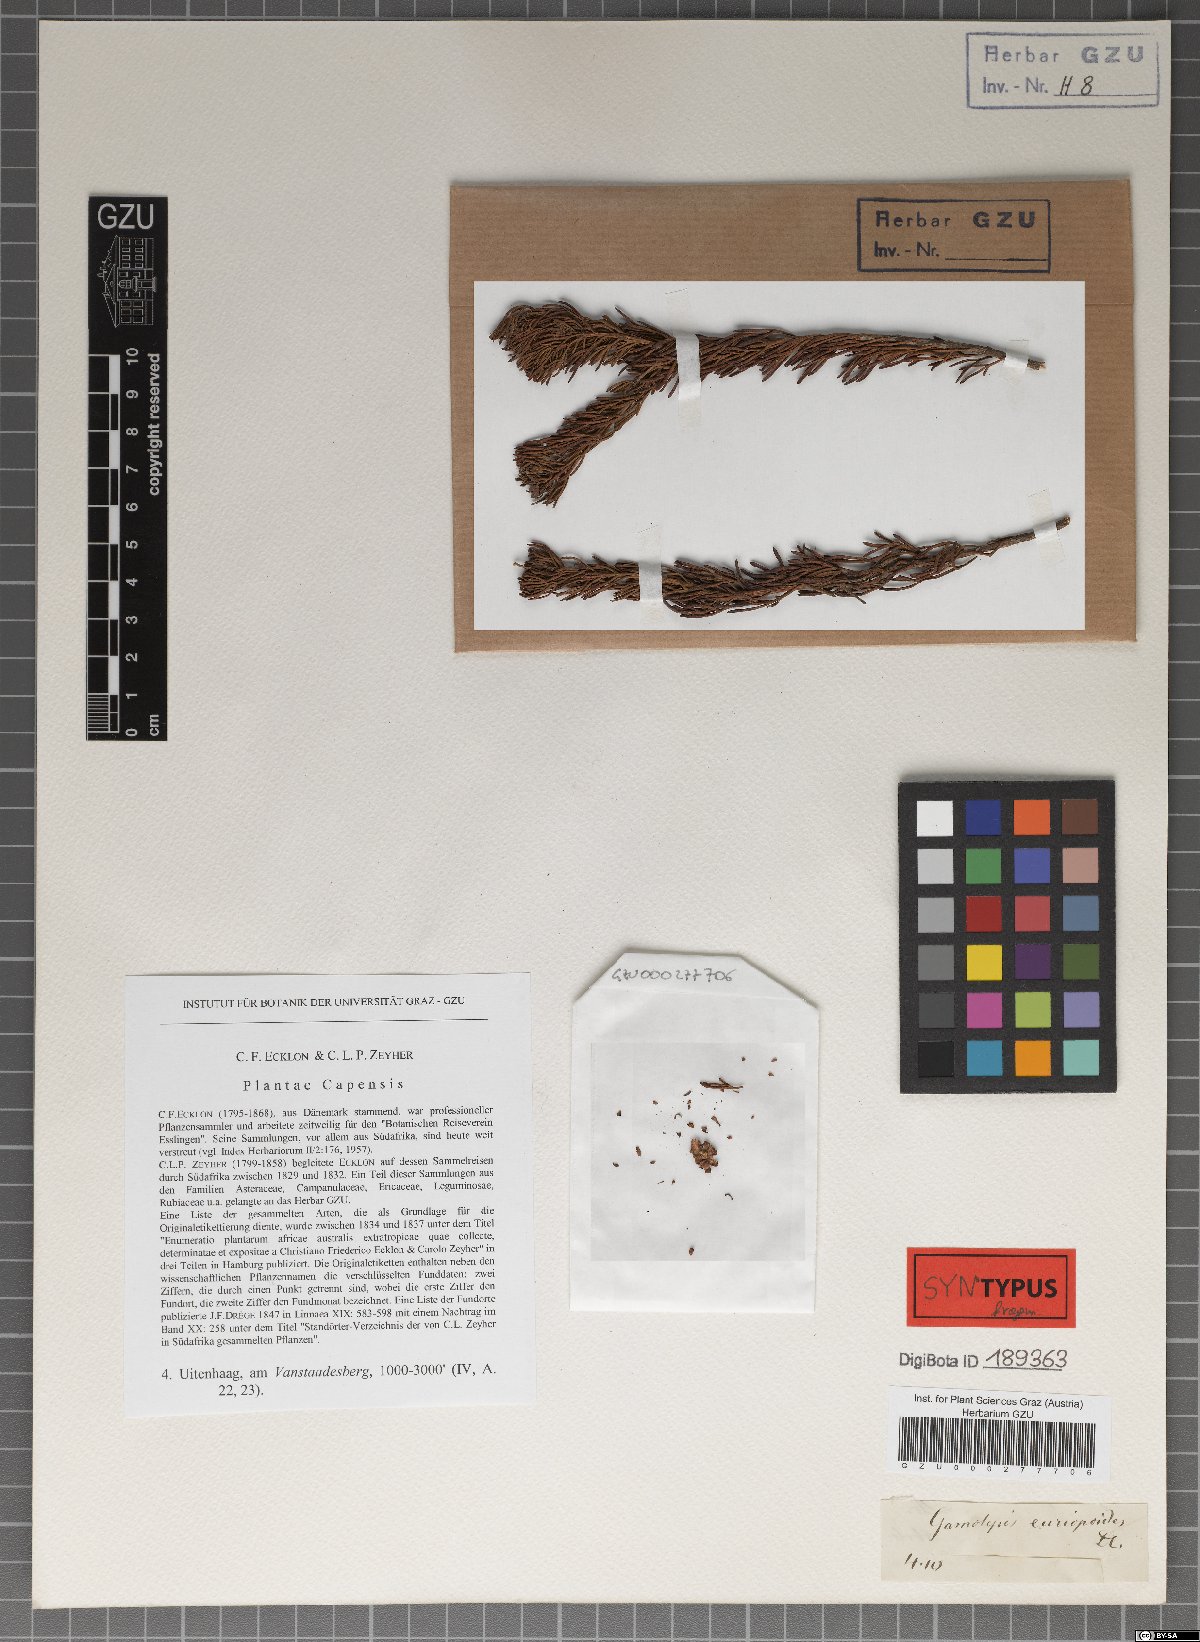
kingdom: Plantae
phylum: Tracheophyta
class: Magnoliopsida
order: Asterales
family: Asteraceae
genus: Euryops
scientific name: Euryops euryopoides
